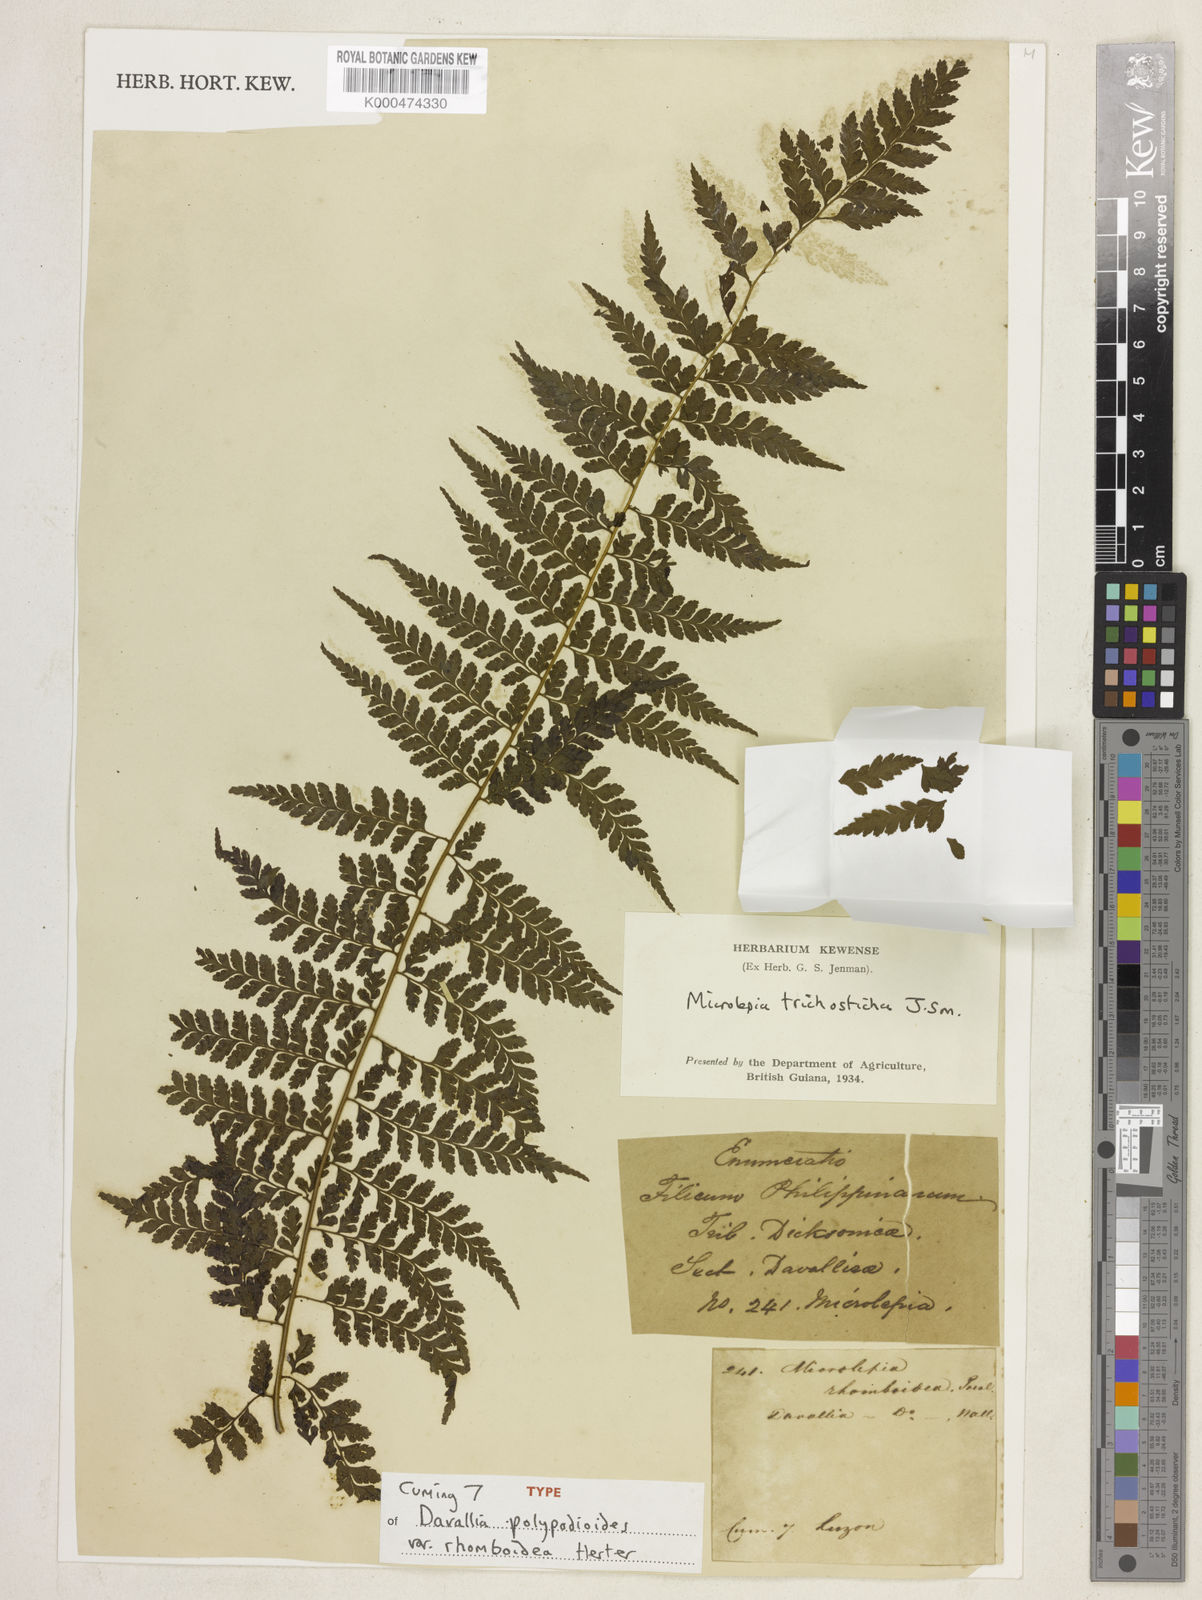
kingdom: Plantae
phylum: Tracheophyta
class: Polypodiopsida
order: Polypodiales
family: Dennstaedtiaceae
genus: Microlepia
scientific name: Microlepia speluncae
